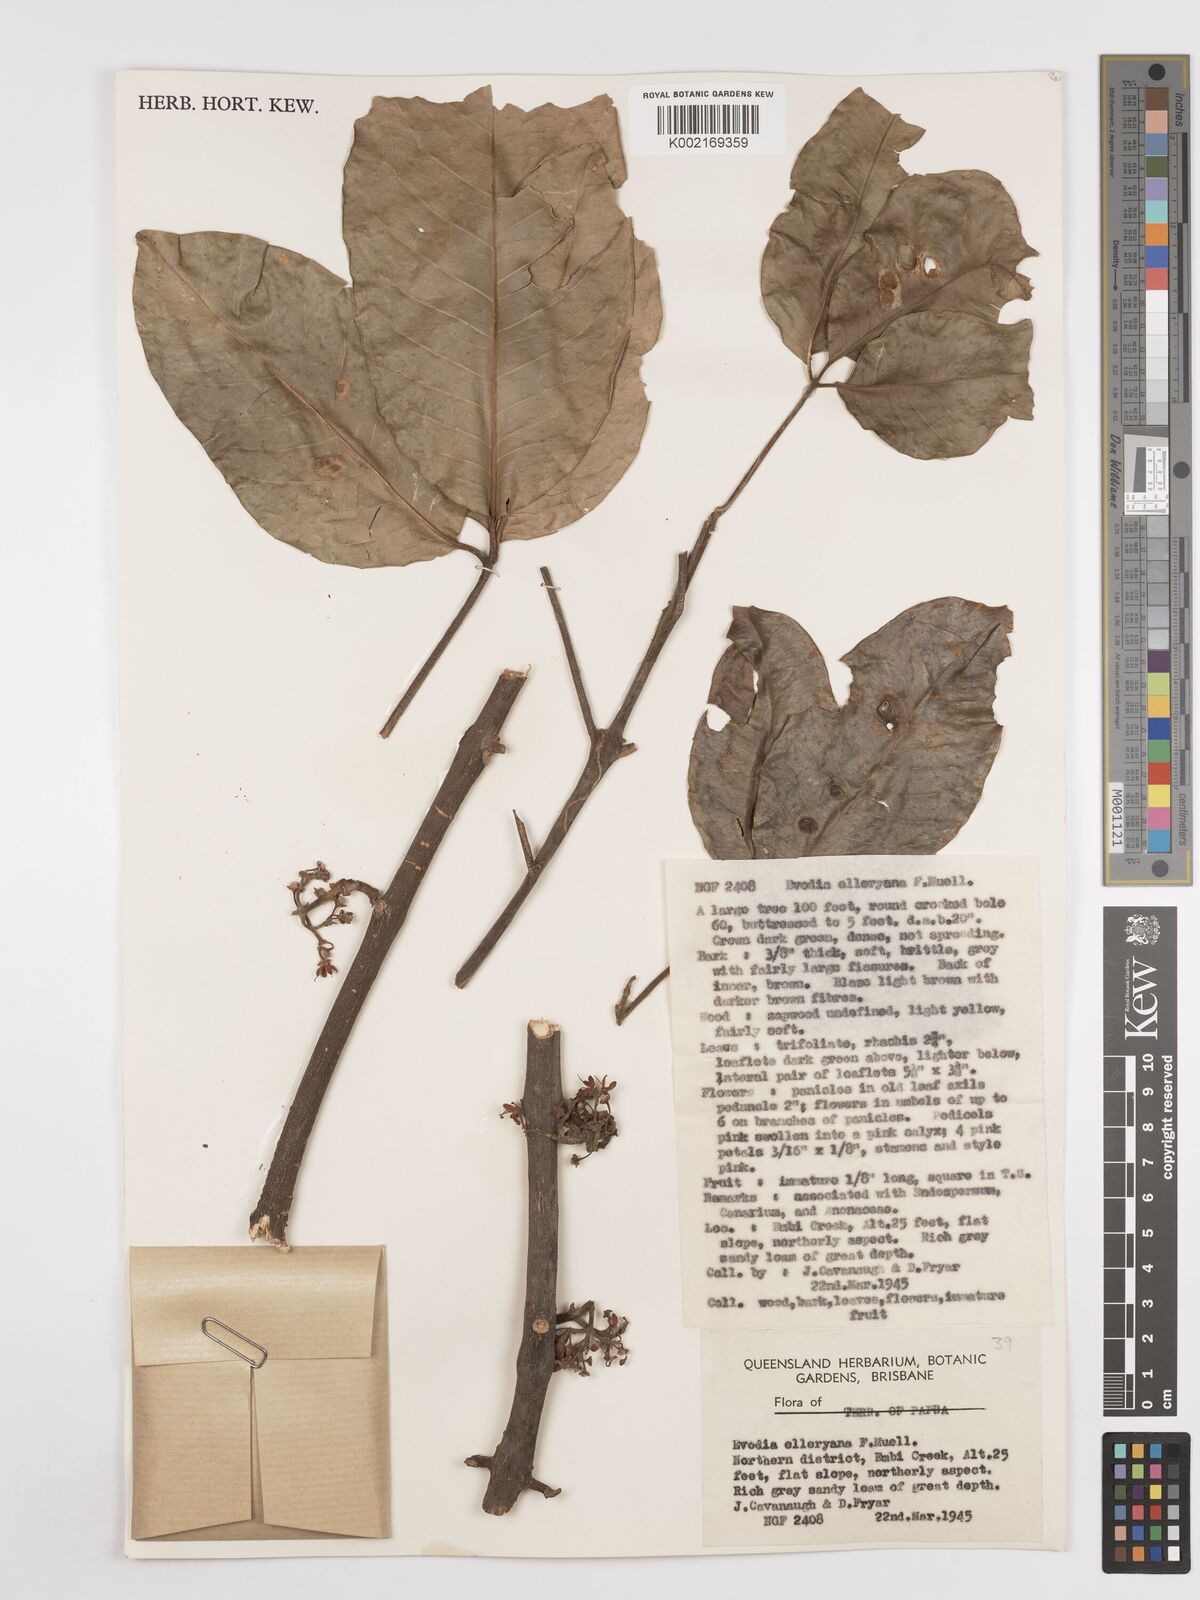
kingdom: Plantae
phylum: Tracheophyta
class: Magnoliopsida
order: Sapindales
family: Rutaceae
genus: Melicope
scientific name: Melicope elleryana
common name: Pink euodia
